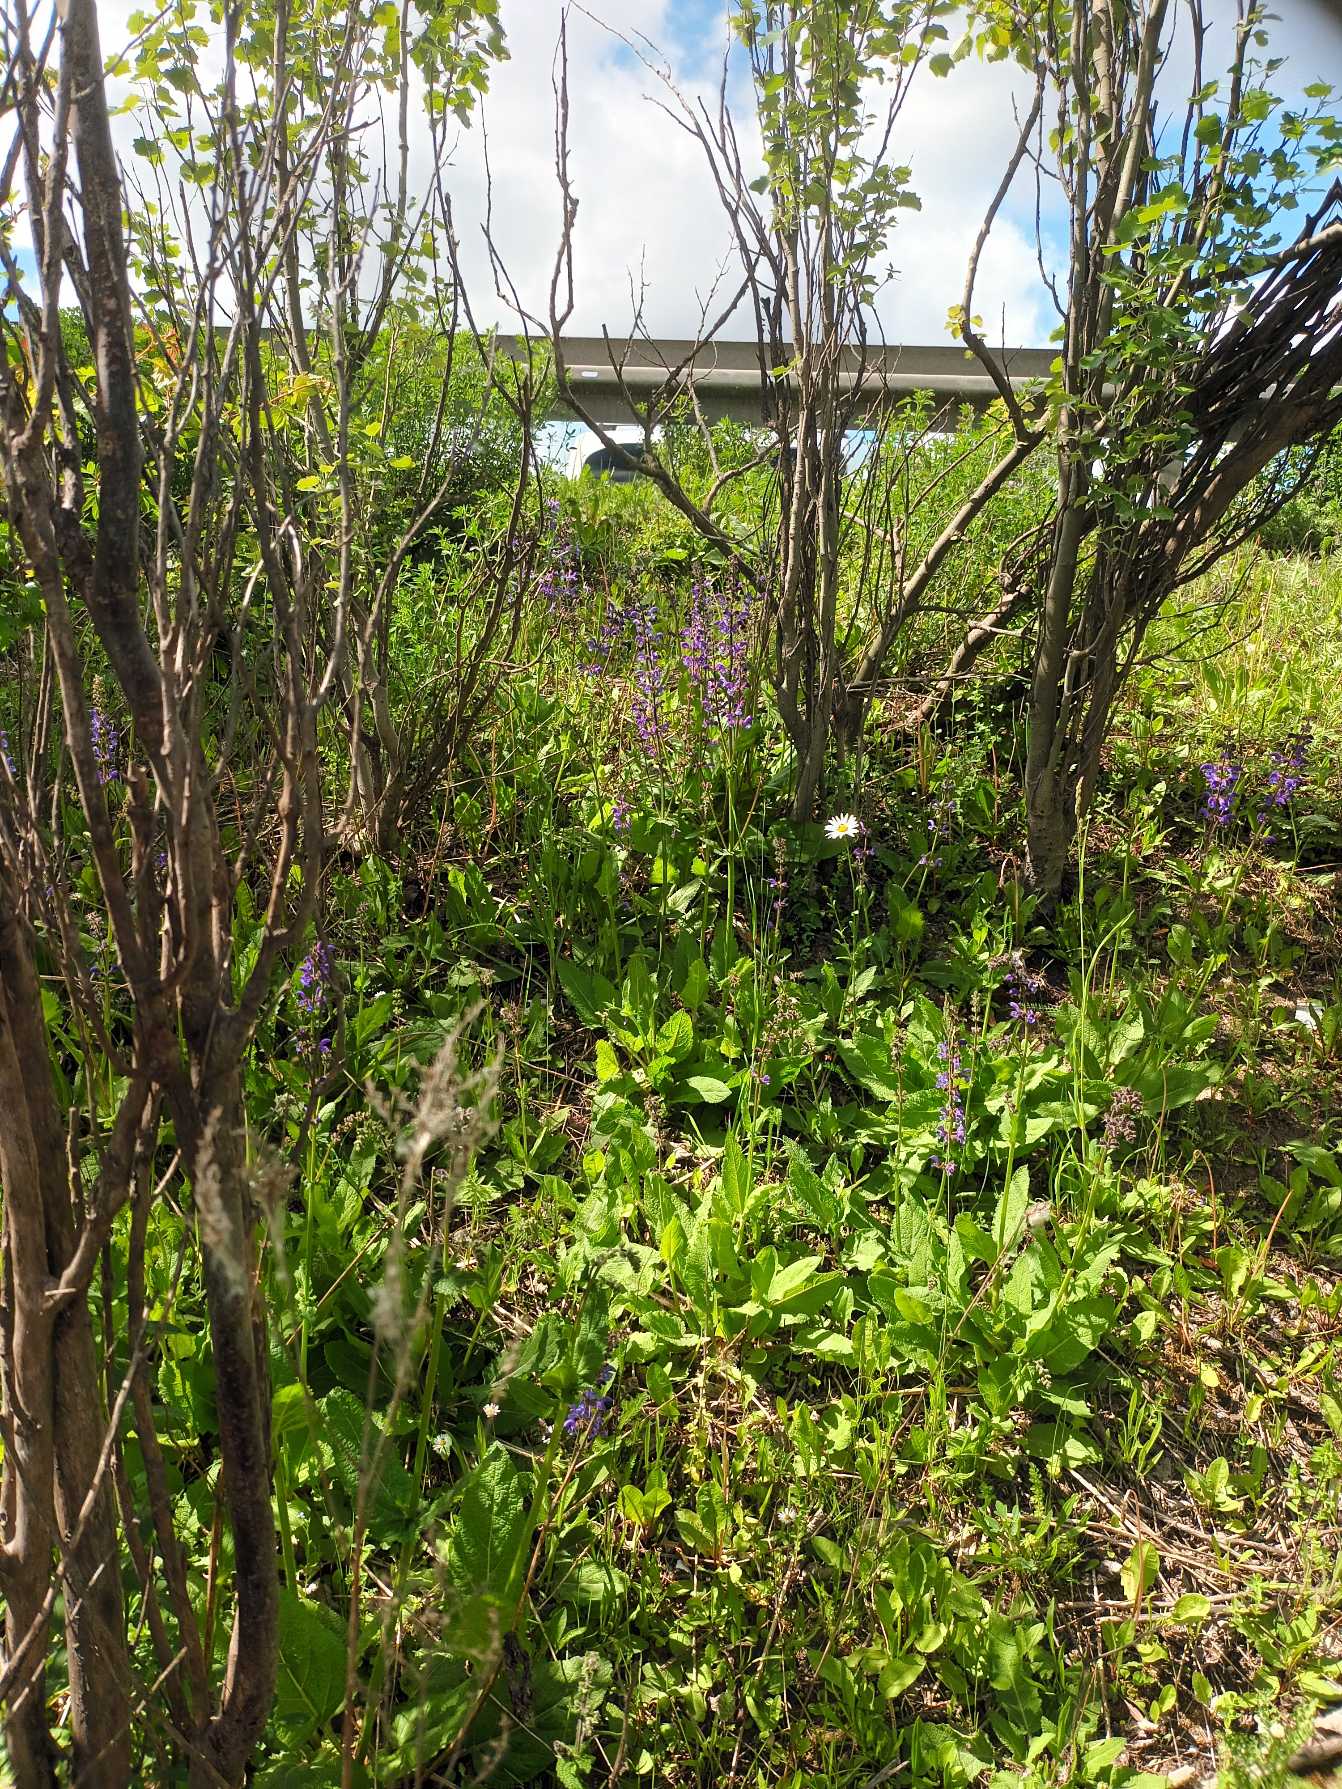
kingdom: Plantae
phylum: Tracheophyta
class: Magnoliopsida
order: Lamiales
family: Lamiaceae
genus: Salvia
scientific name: Salvia pratensis
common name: Eng-salvie
